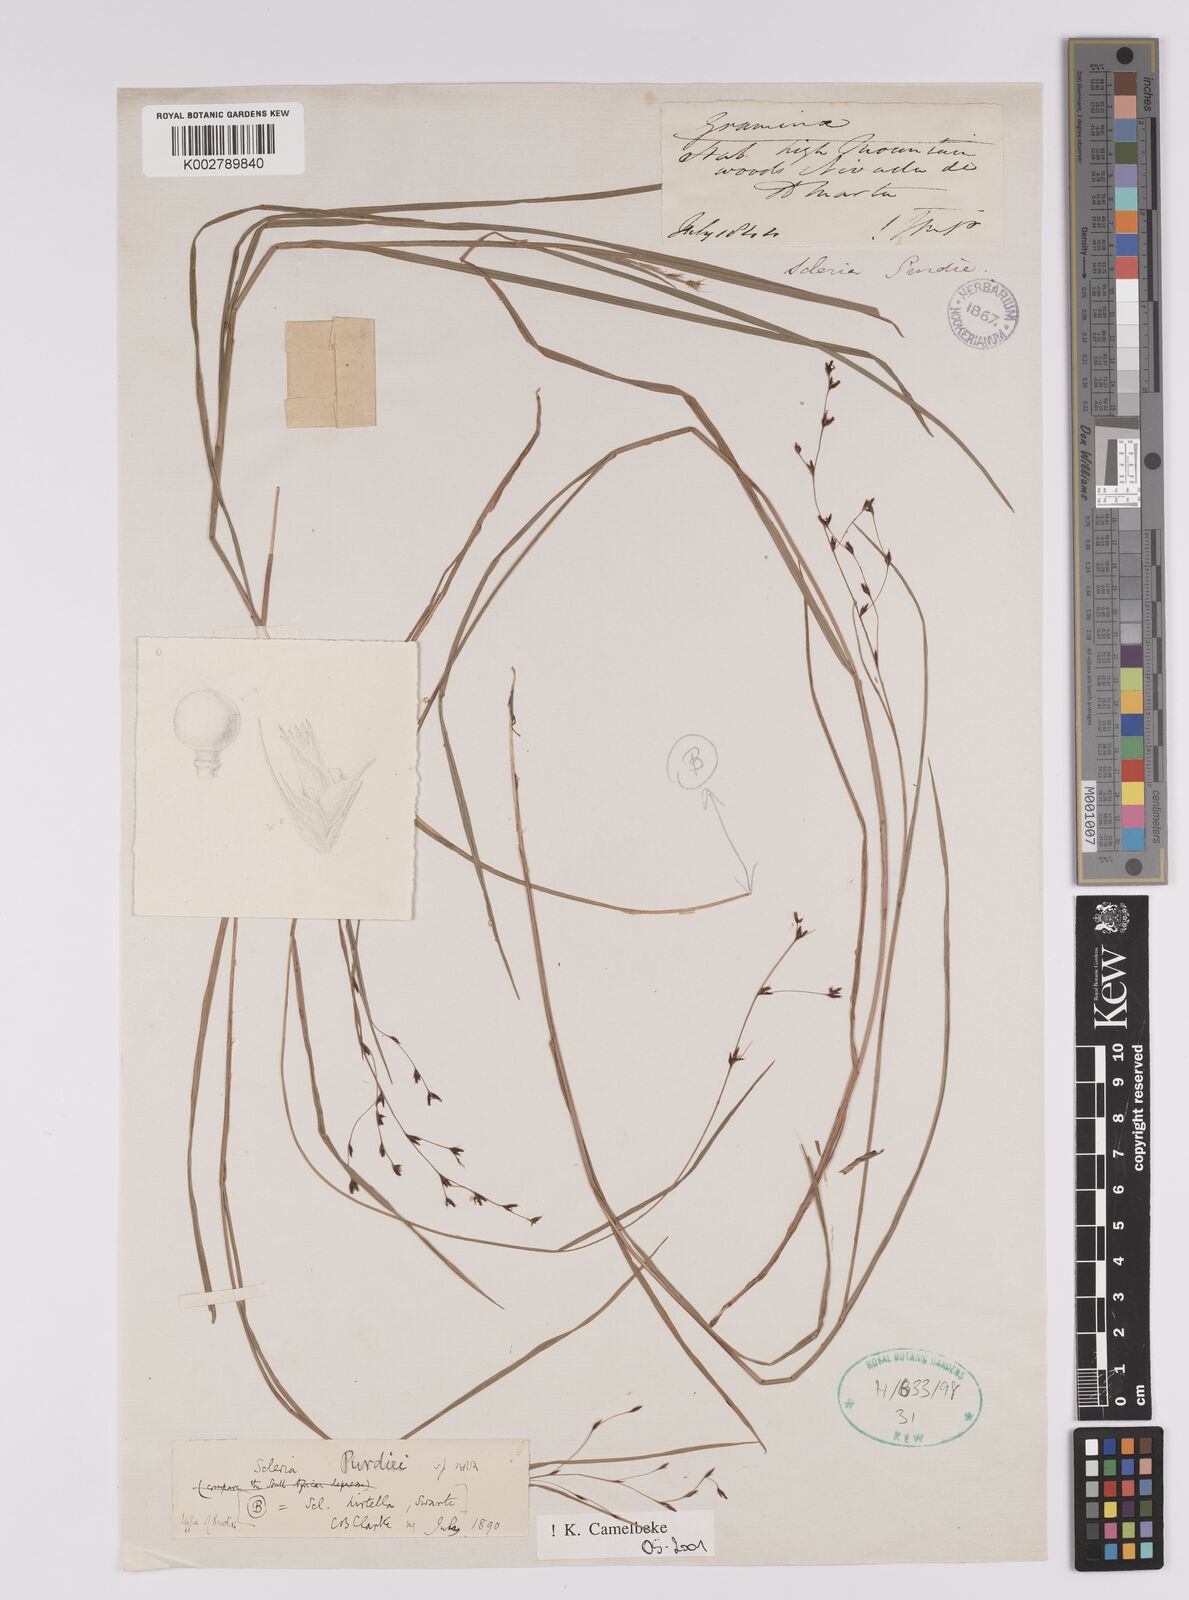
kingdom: Plantae
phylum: Tracheophyta
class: Liliopsida
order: Poales
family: Cyperaceae
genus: Scleria
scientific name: Scleria purdiei
